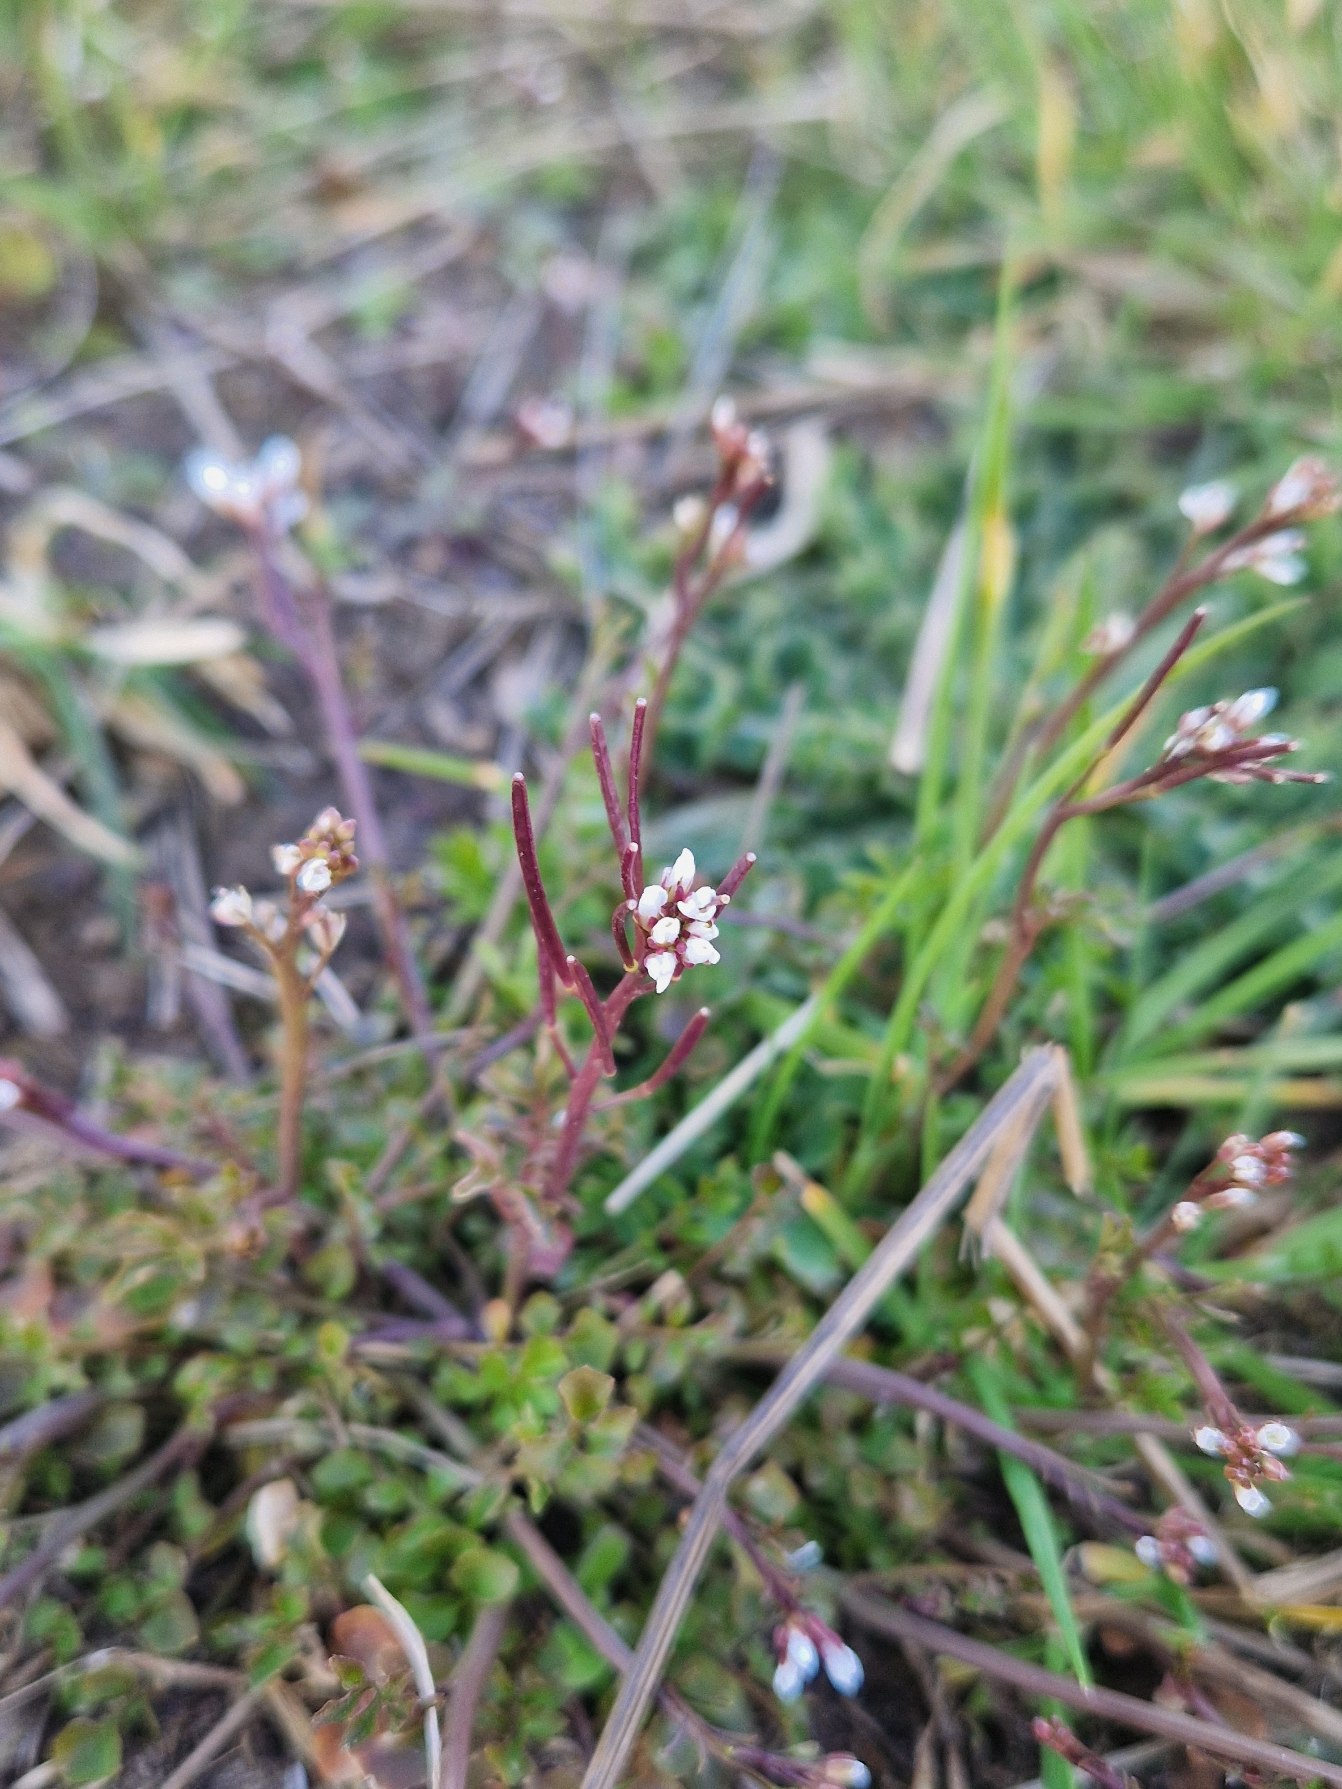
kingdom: Plantae
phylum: Tracheophyta
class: Magnoliopsida
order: Brassicales
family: Brassicaceae
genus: Cardamine
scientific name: Cardamine hirsuta
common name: Roset-springklap
